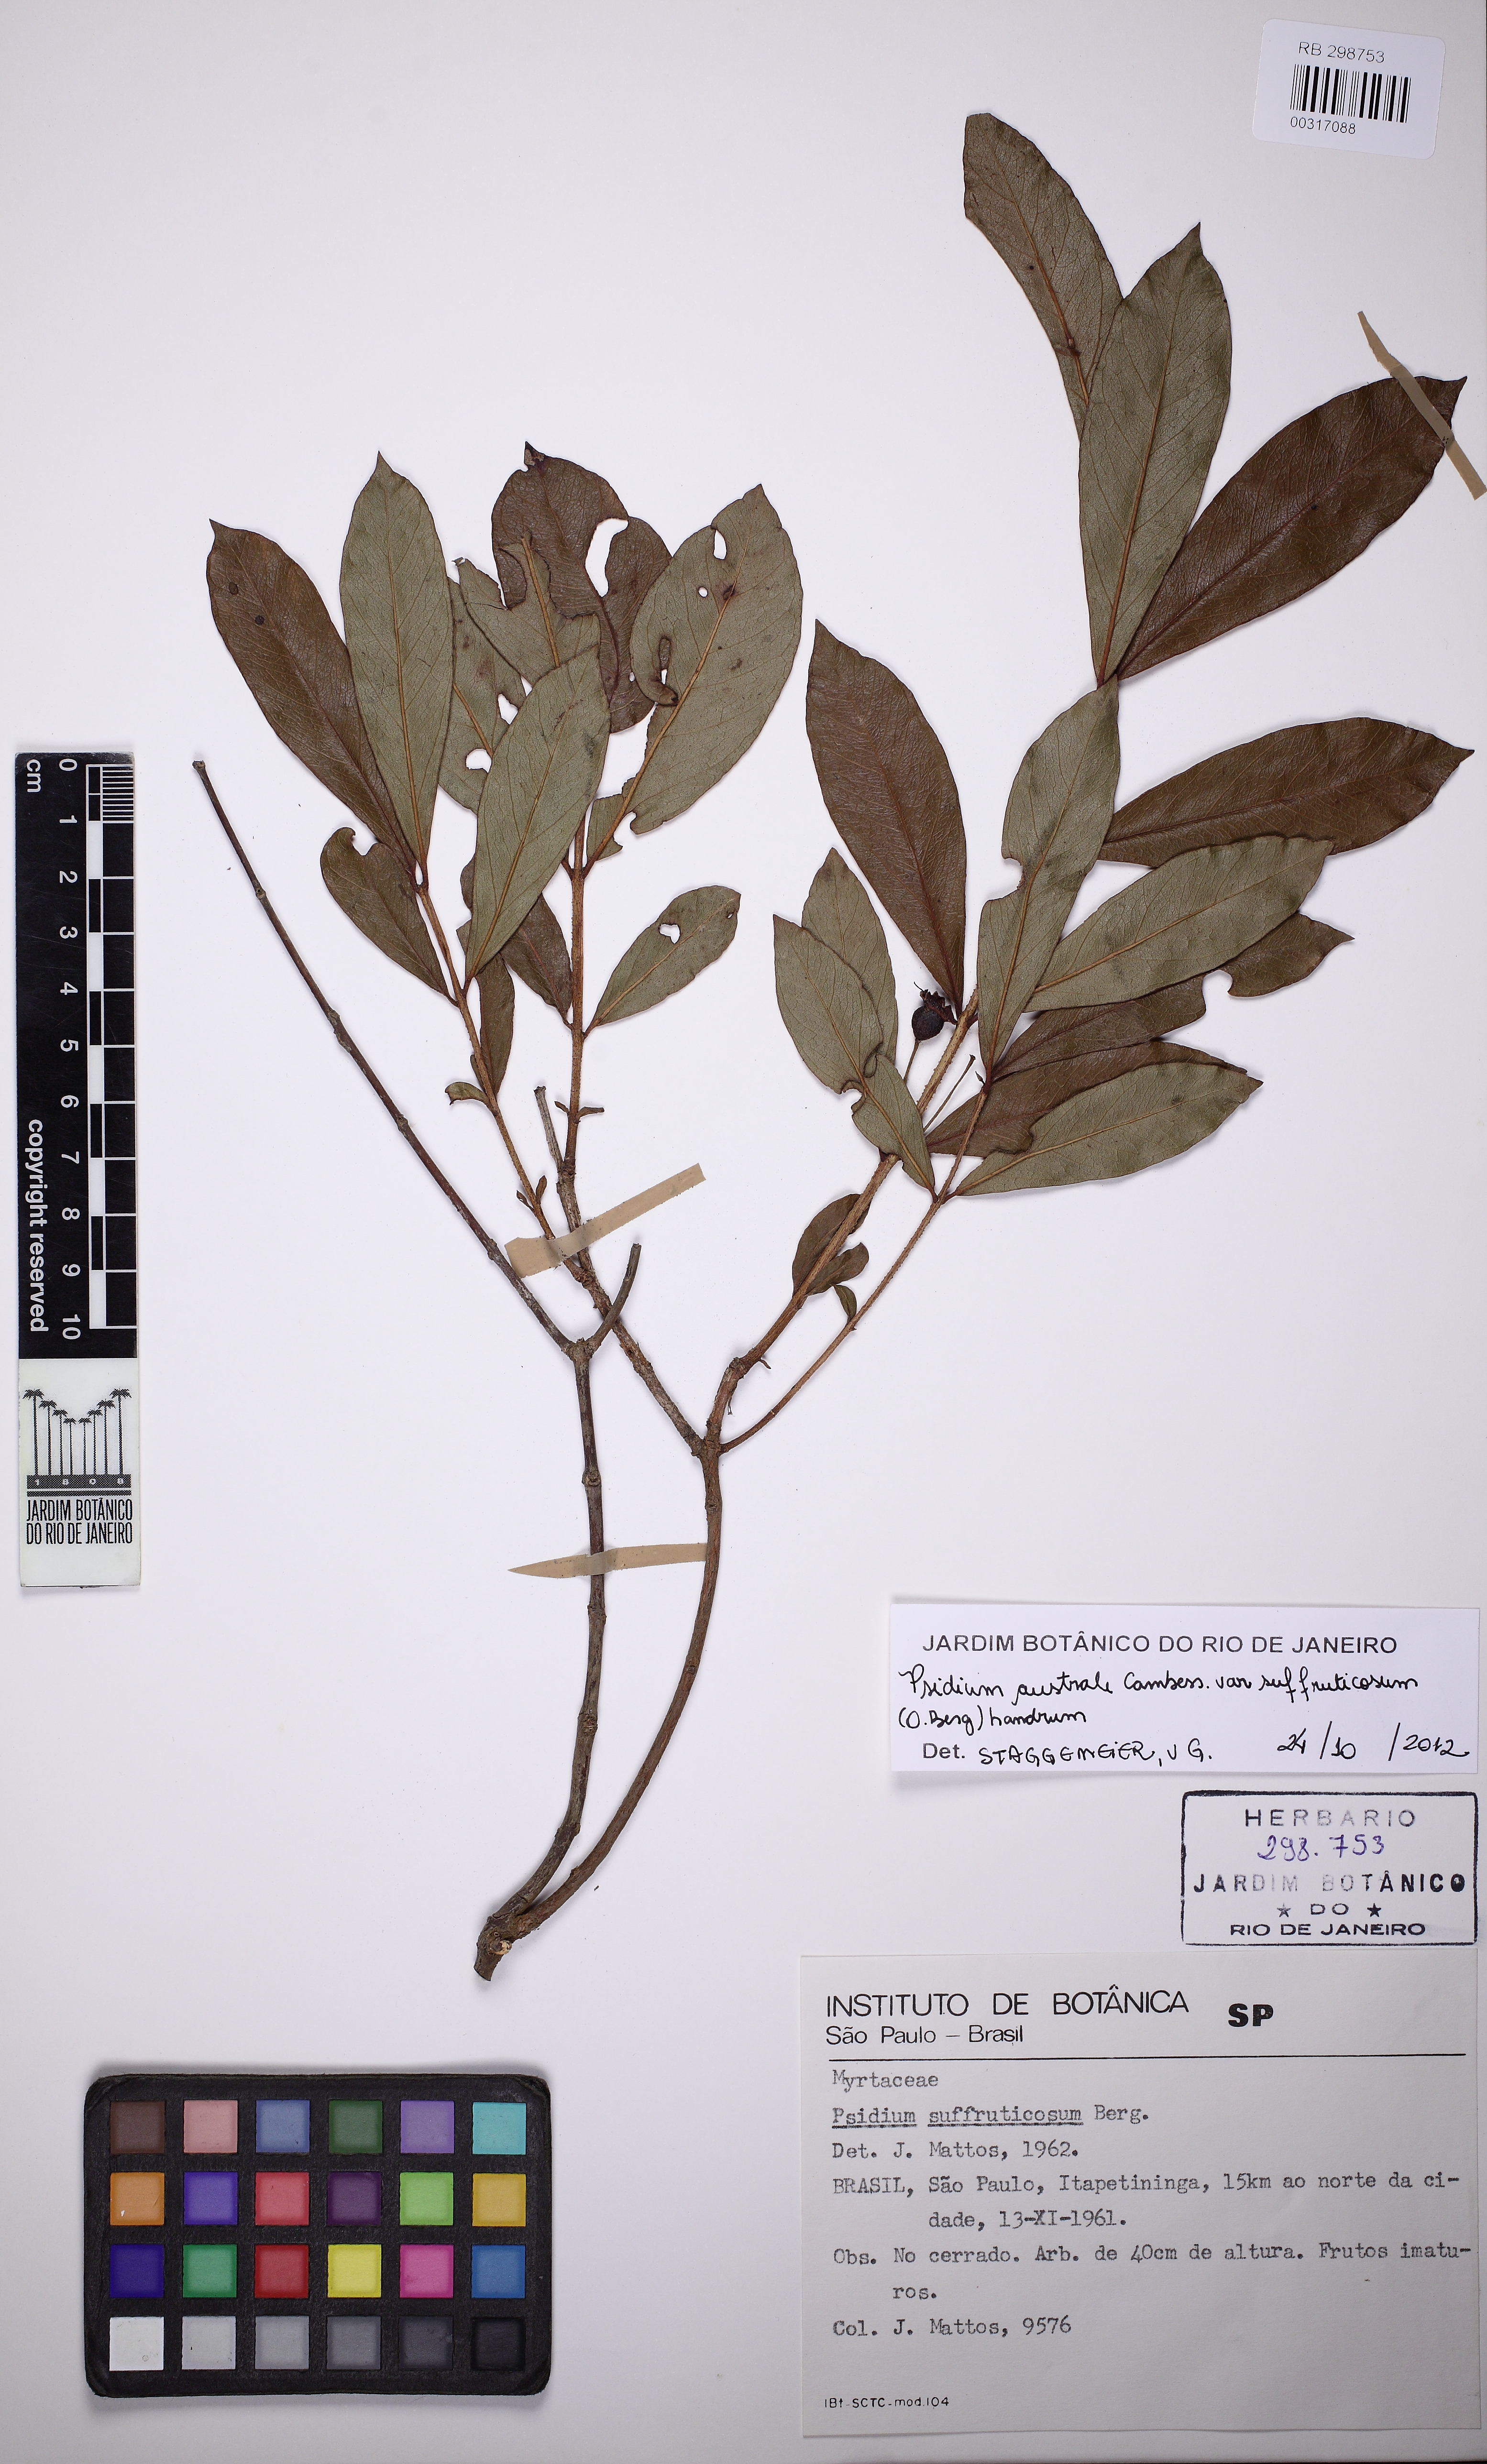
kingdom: Plantae
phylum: Tracheophyta
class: Magnoliopsida
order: Myrtales
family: Myrtaceae
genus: Psidium
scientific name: Psidium australe
